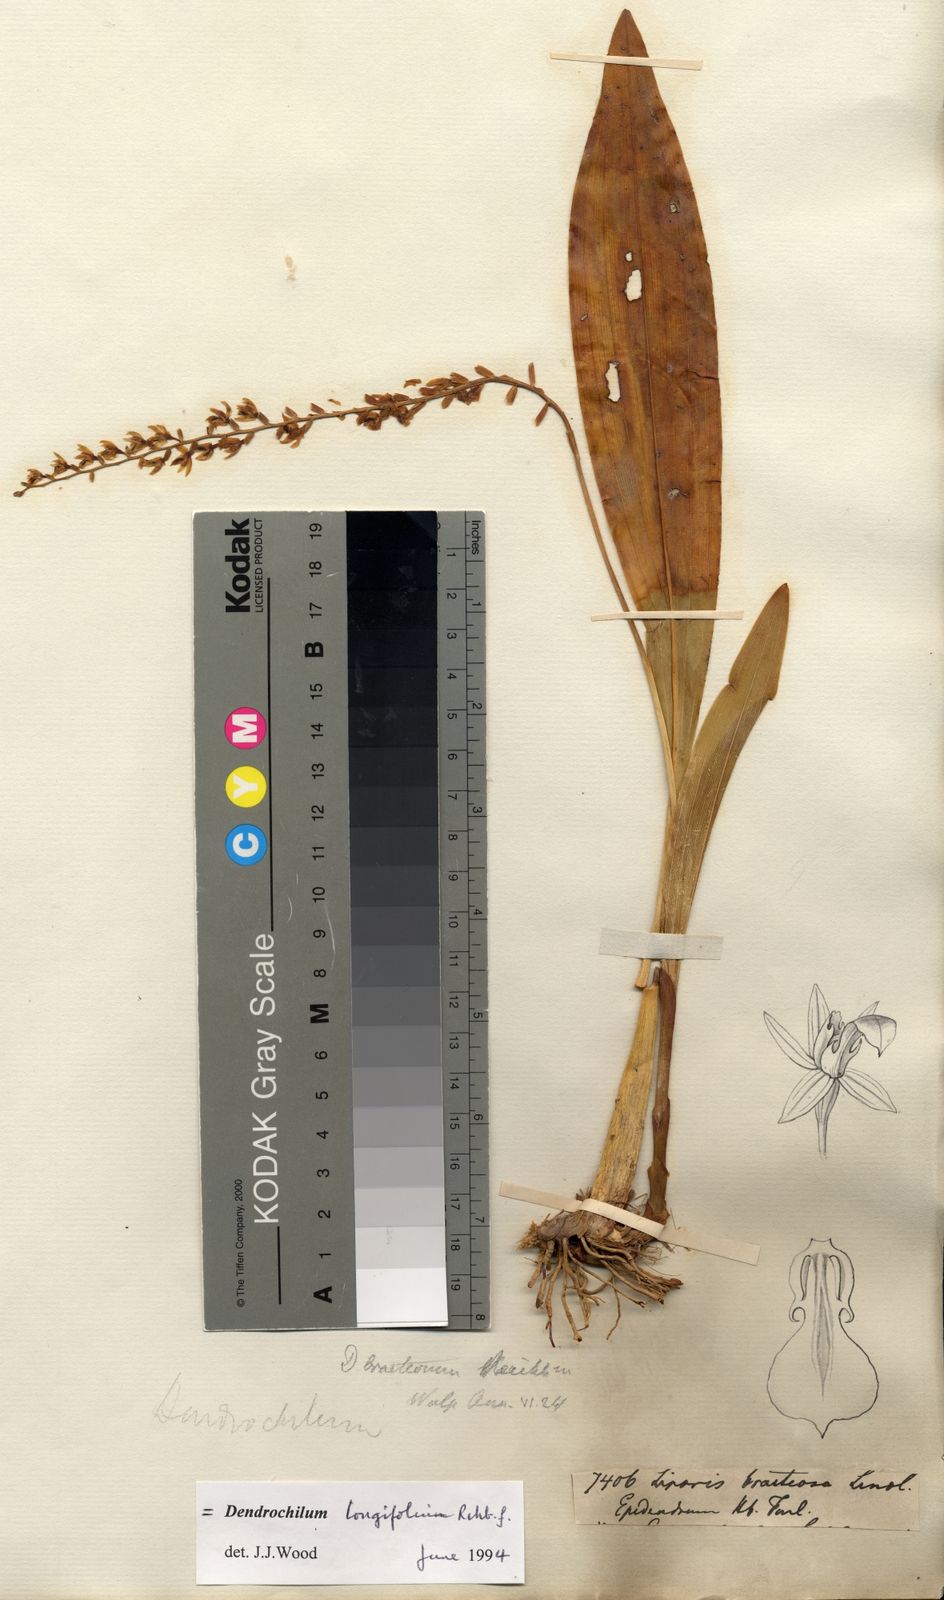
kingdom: Plantae
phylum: Tracheophyta
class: Liliopsida
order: Asparagales
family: Orchidaceae
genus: Coelogyne
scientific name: Coelogyne bracteosa
